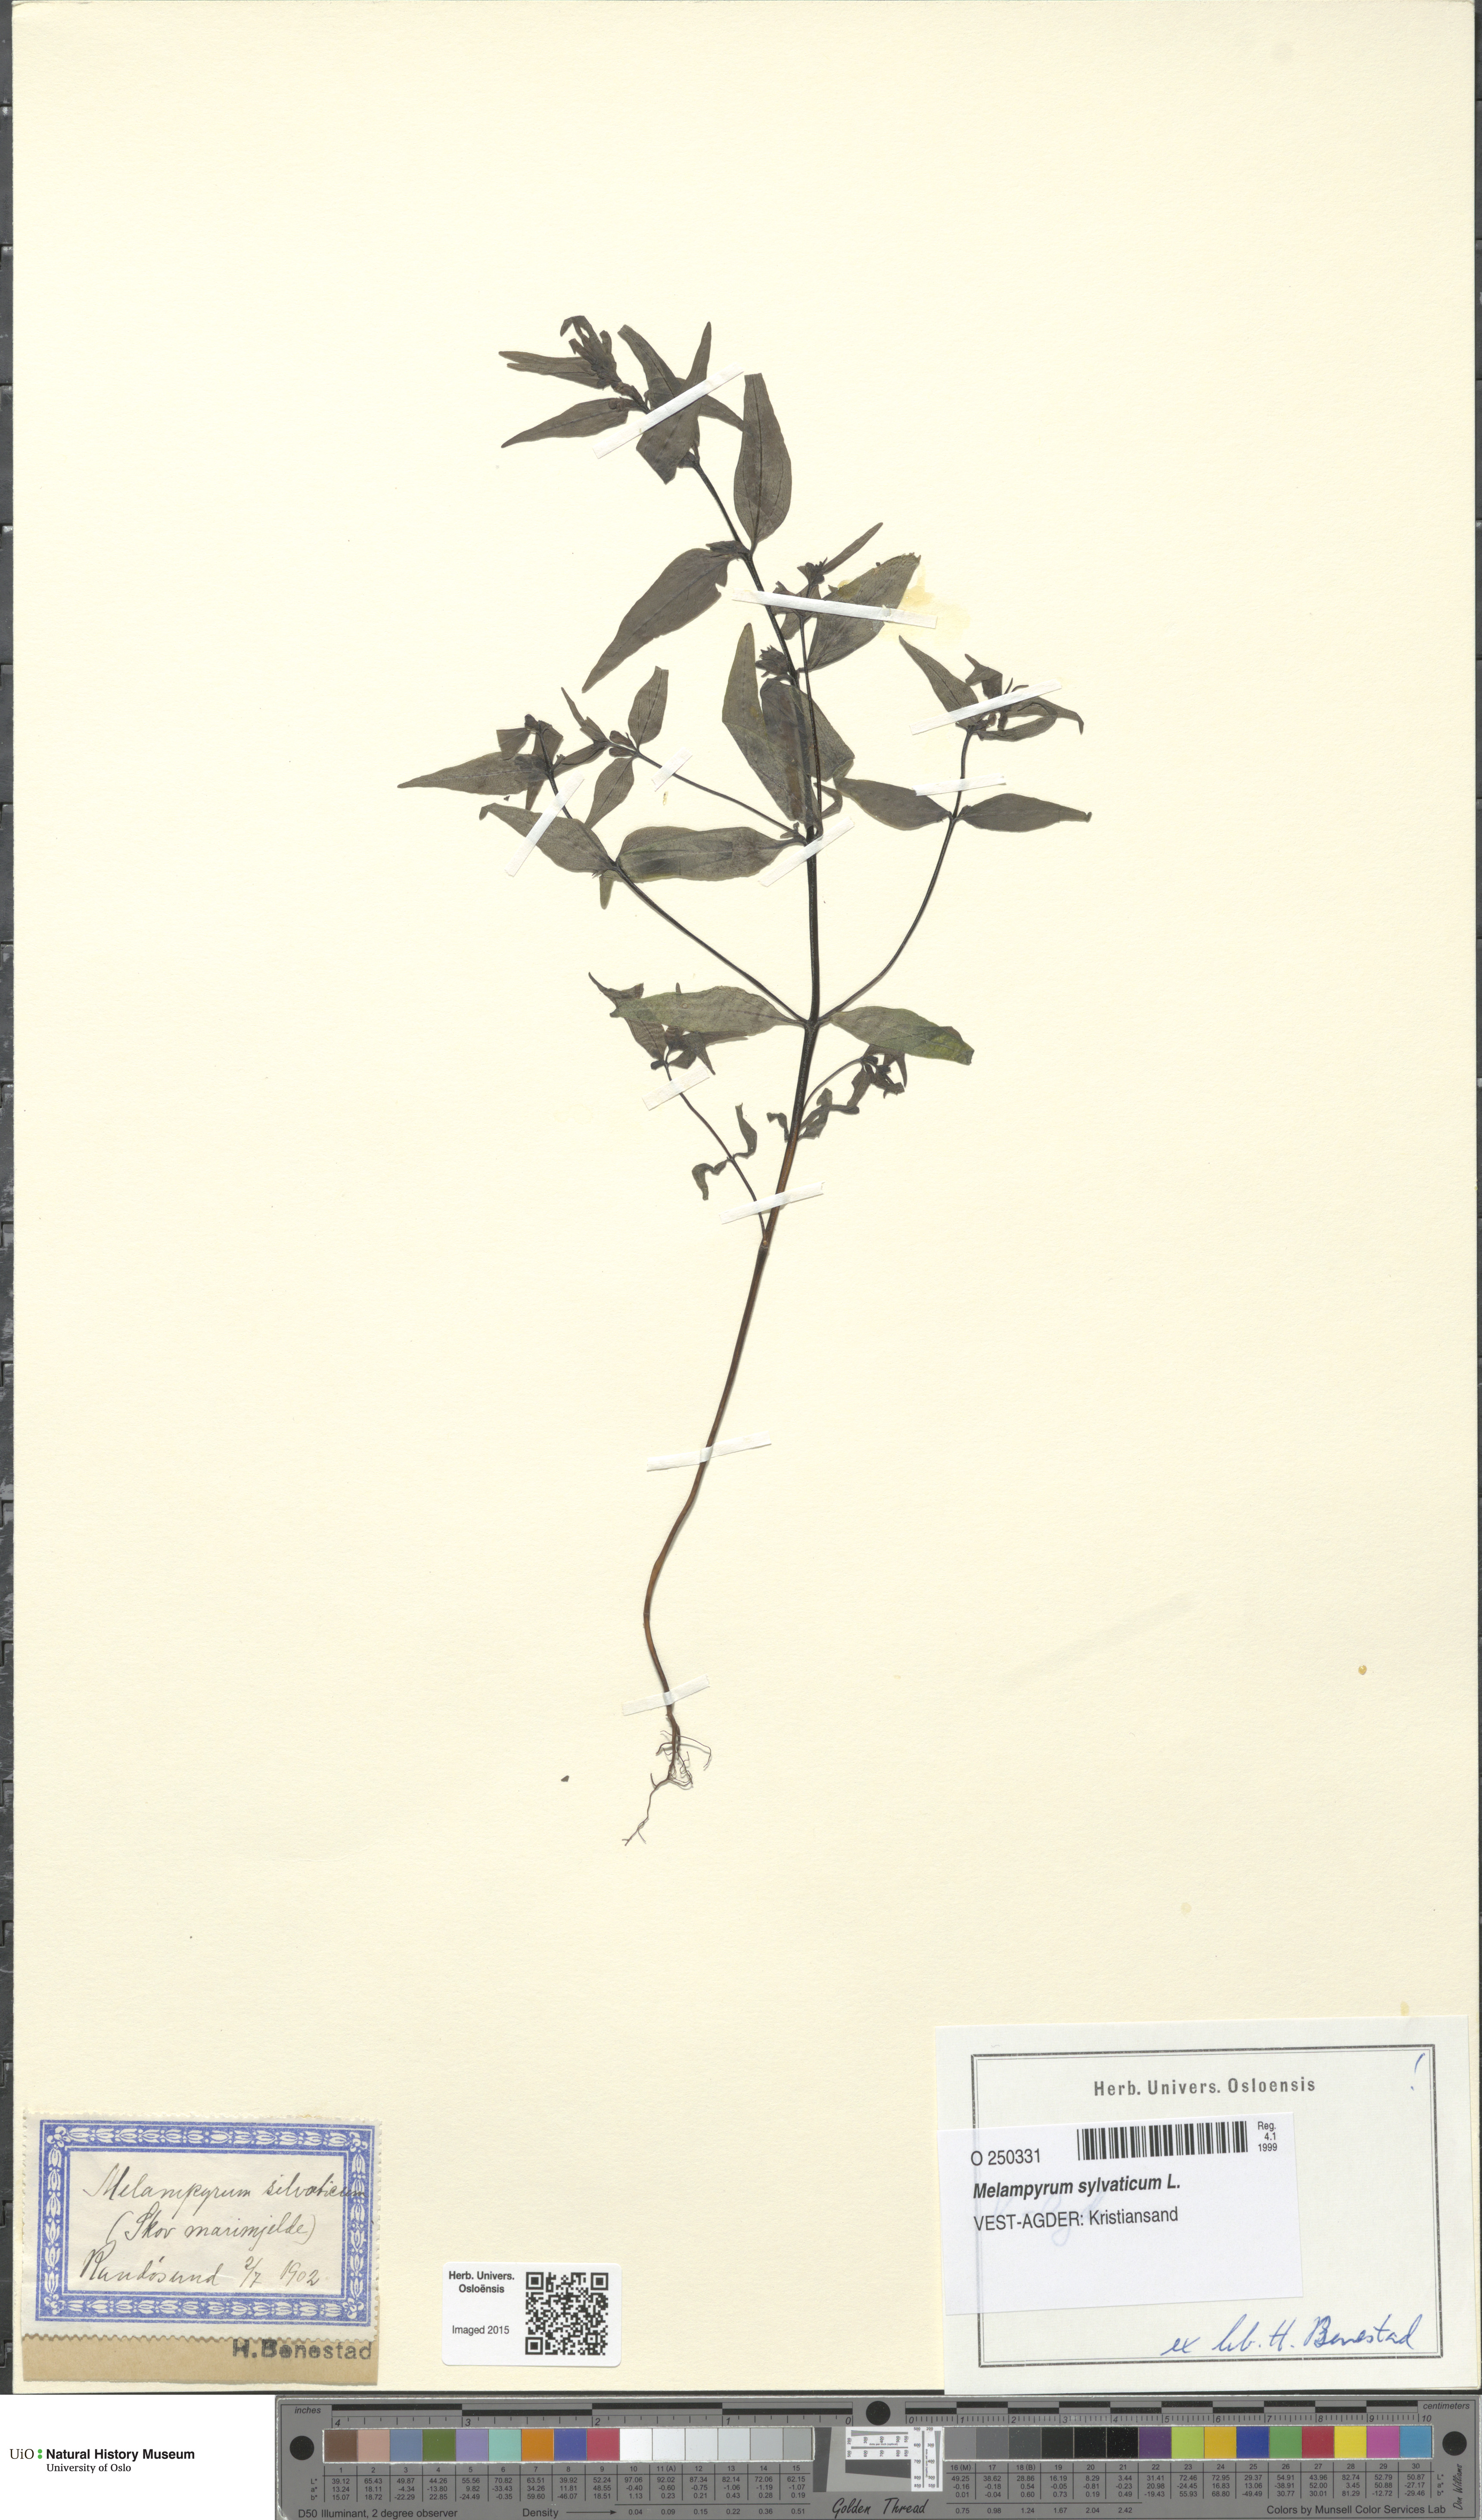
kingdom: Plantae
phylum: Tracheophyta
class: Magnoliopsida
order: Lamiales
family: Orobanchaceae
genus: Melampyrum
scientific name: Melampyrum sylvaticum
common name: Small cow-wheat
